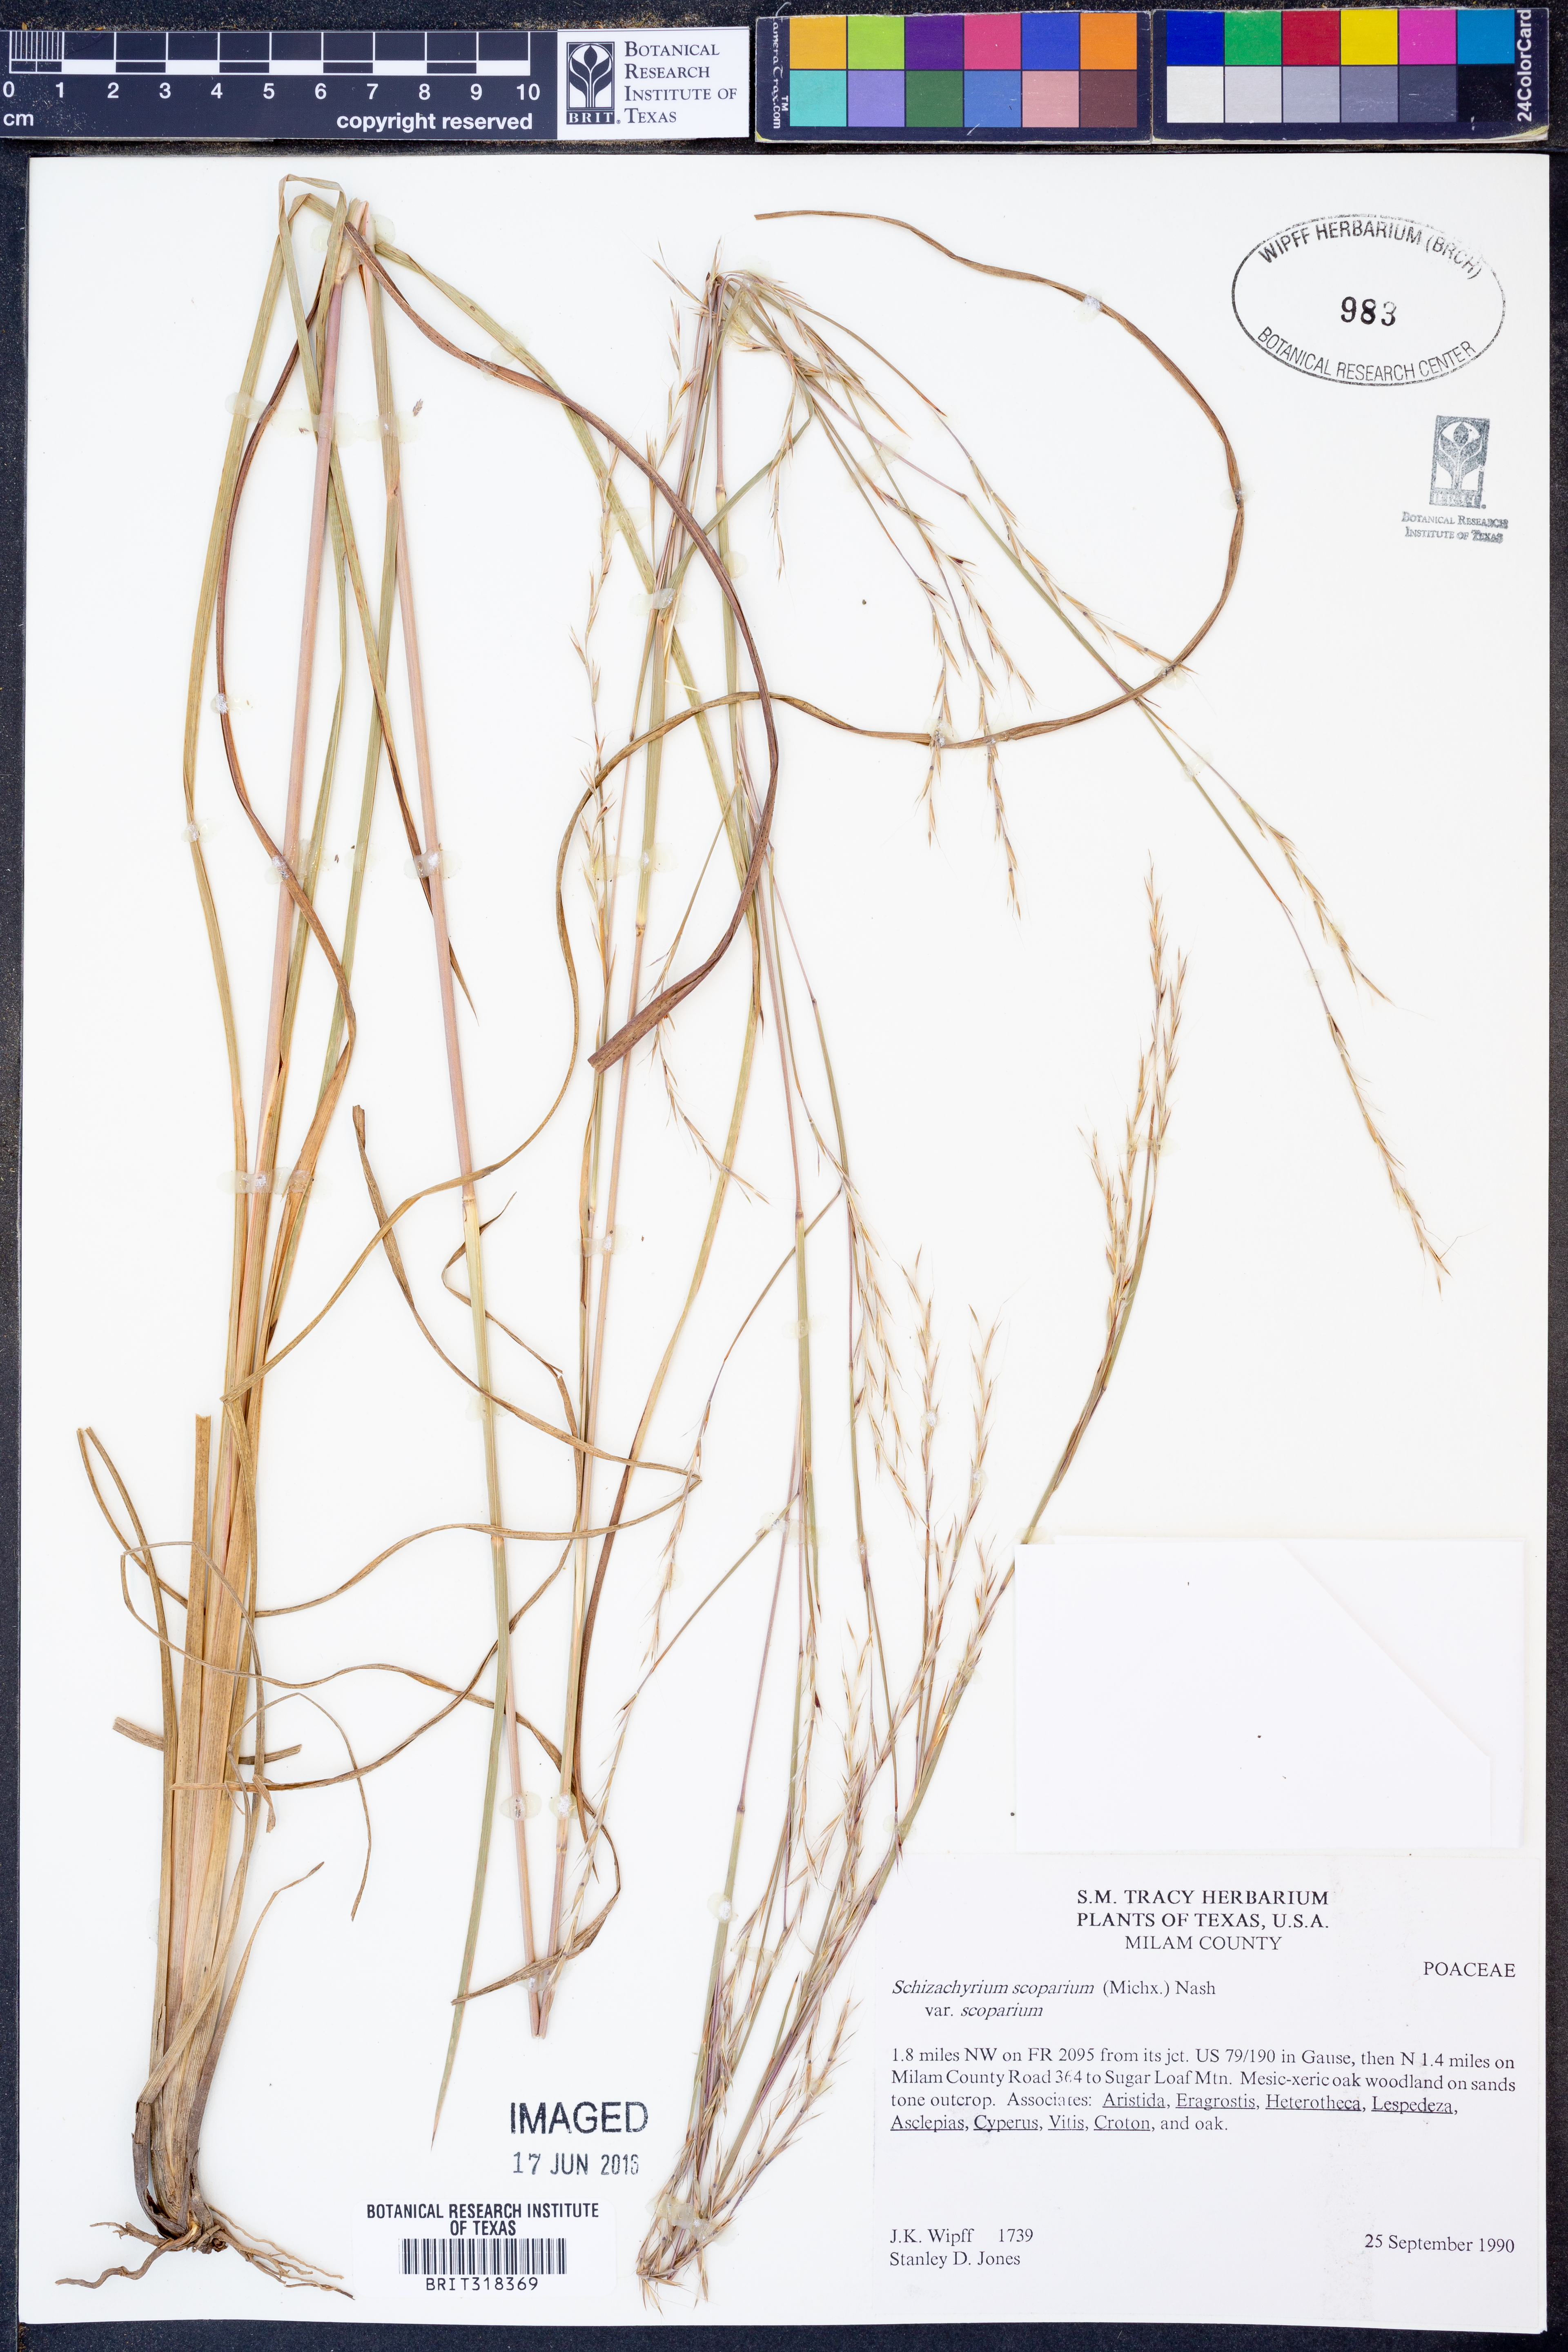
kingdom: Plantae
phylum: Tracheophyta
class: Liliopsida
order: Poales
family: Poaceae
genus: Schizachyrium
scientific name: Schizachyrium scoparium
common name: Little bluestem
